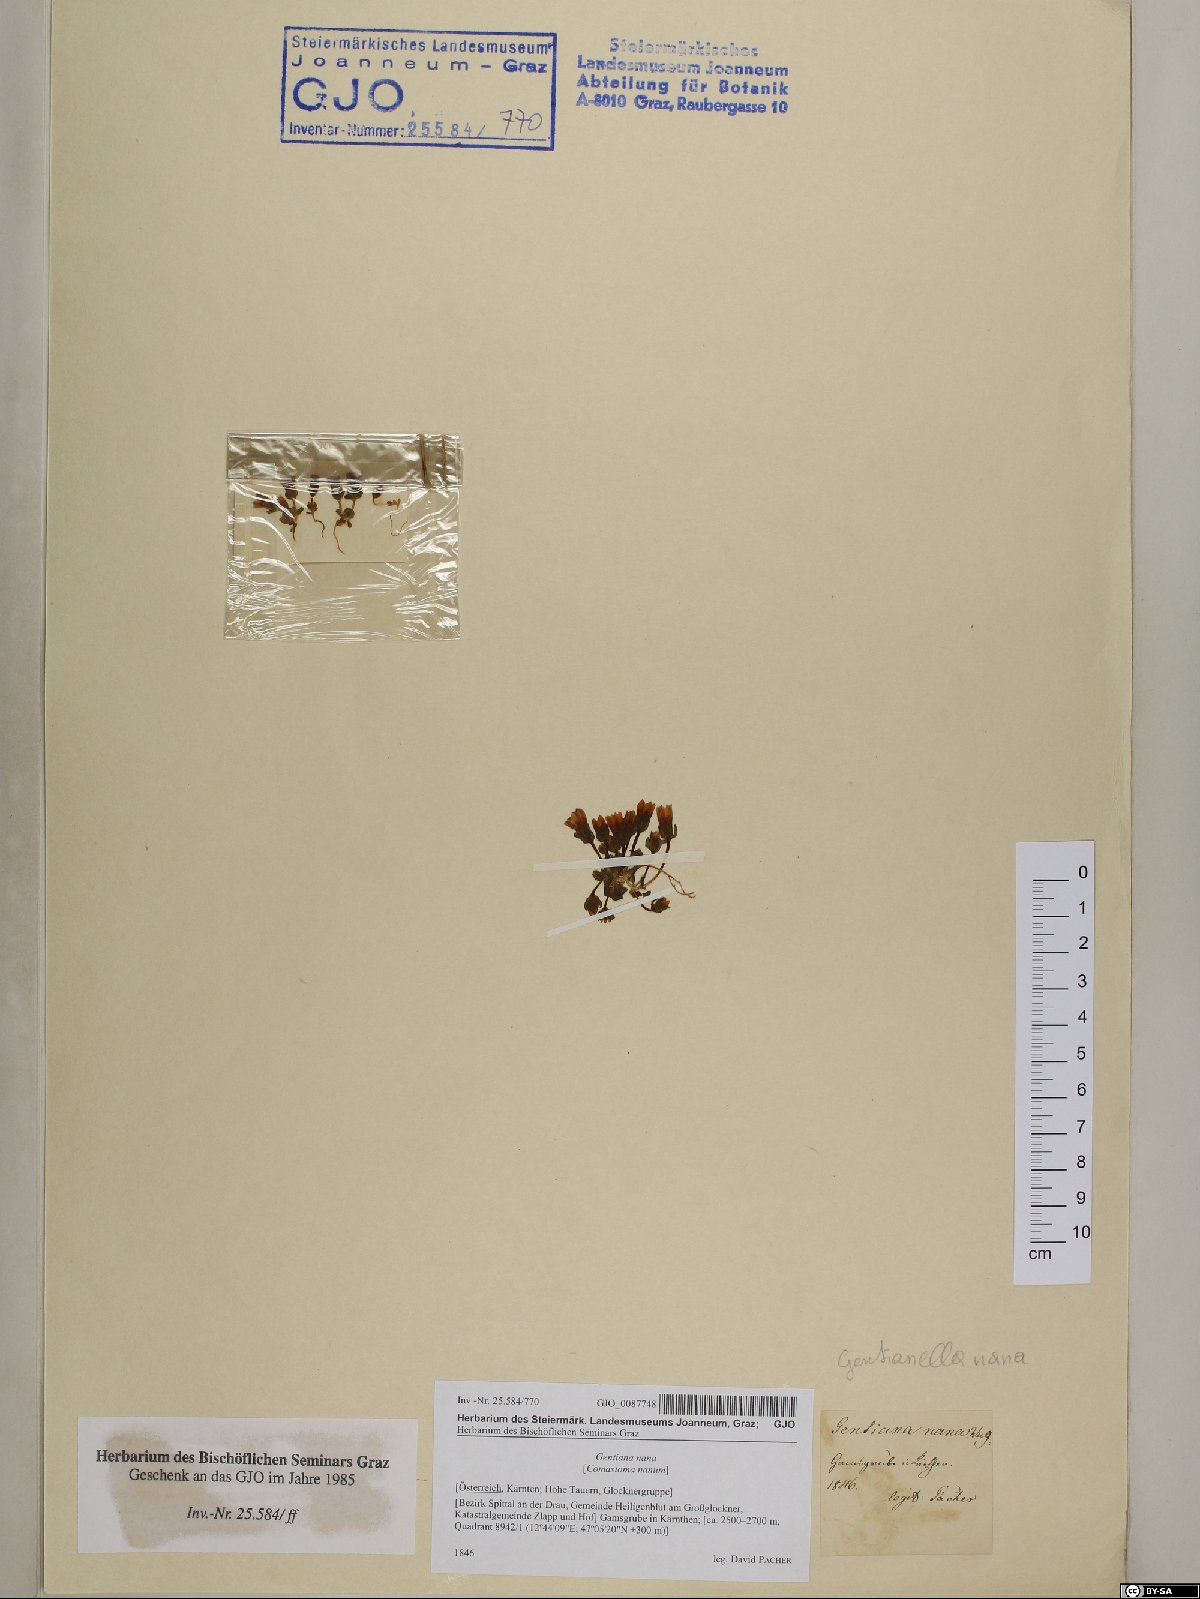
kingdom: Plantae
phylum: Tracheophyta
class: Magnoliopsida
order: Gentianales
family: Gentianaceae
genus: Comastoma
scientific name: Comastoma nanum
